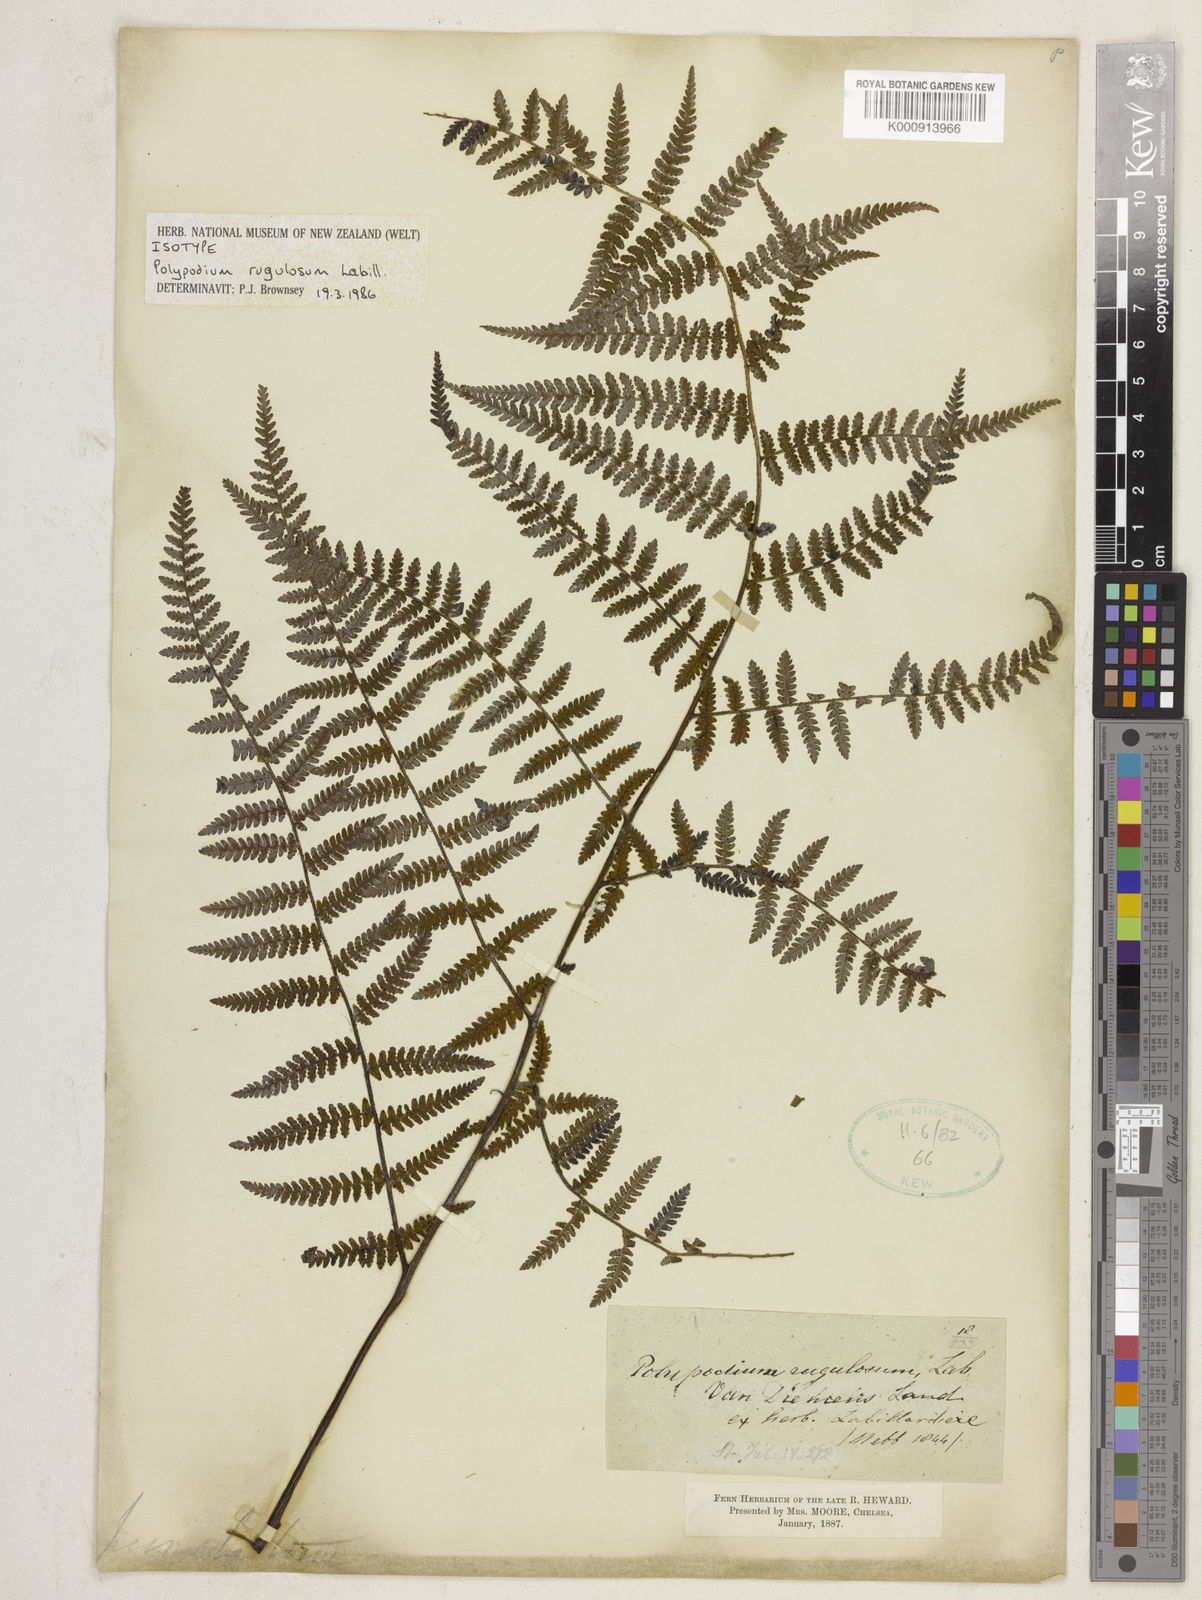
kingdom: Plantae
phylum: Tracheophyta
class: Polypodiopsida
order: Polypodiales
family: Dennstaedtiaceae
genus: Hypolepis
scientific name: Hypolepis rugosula
